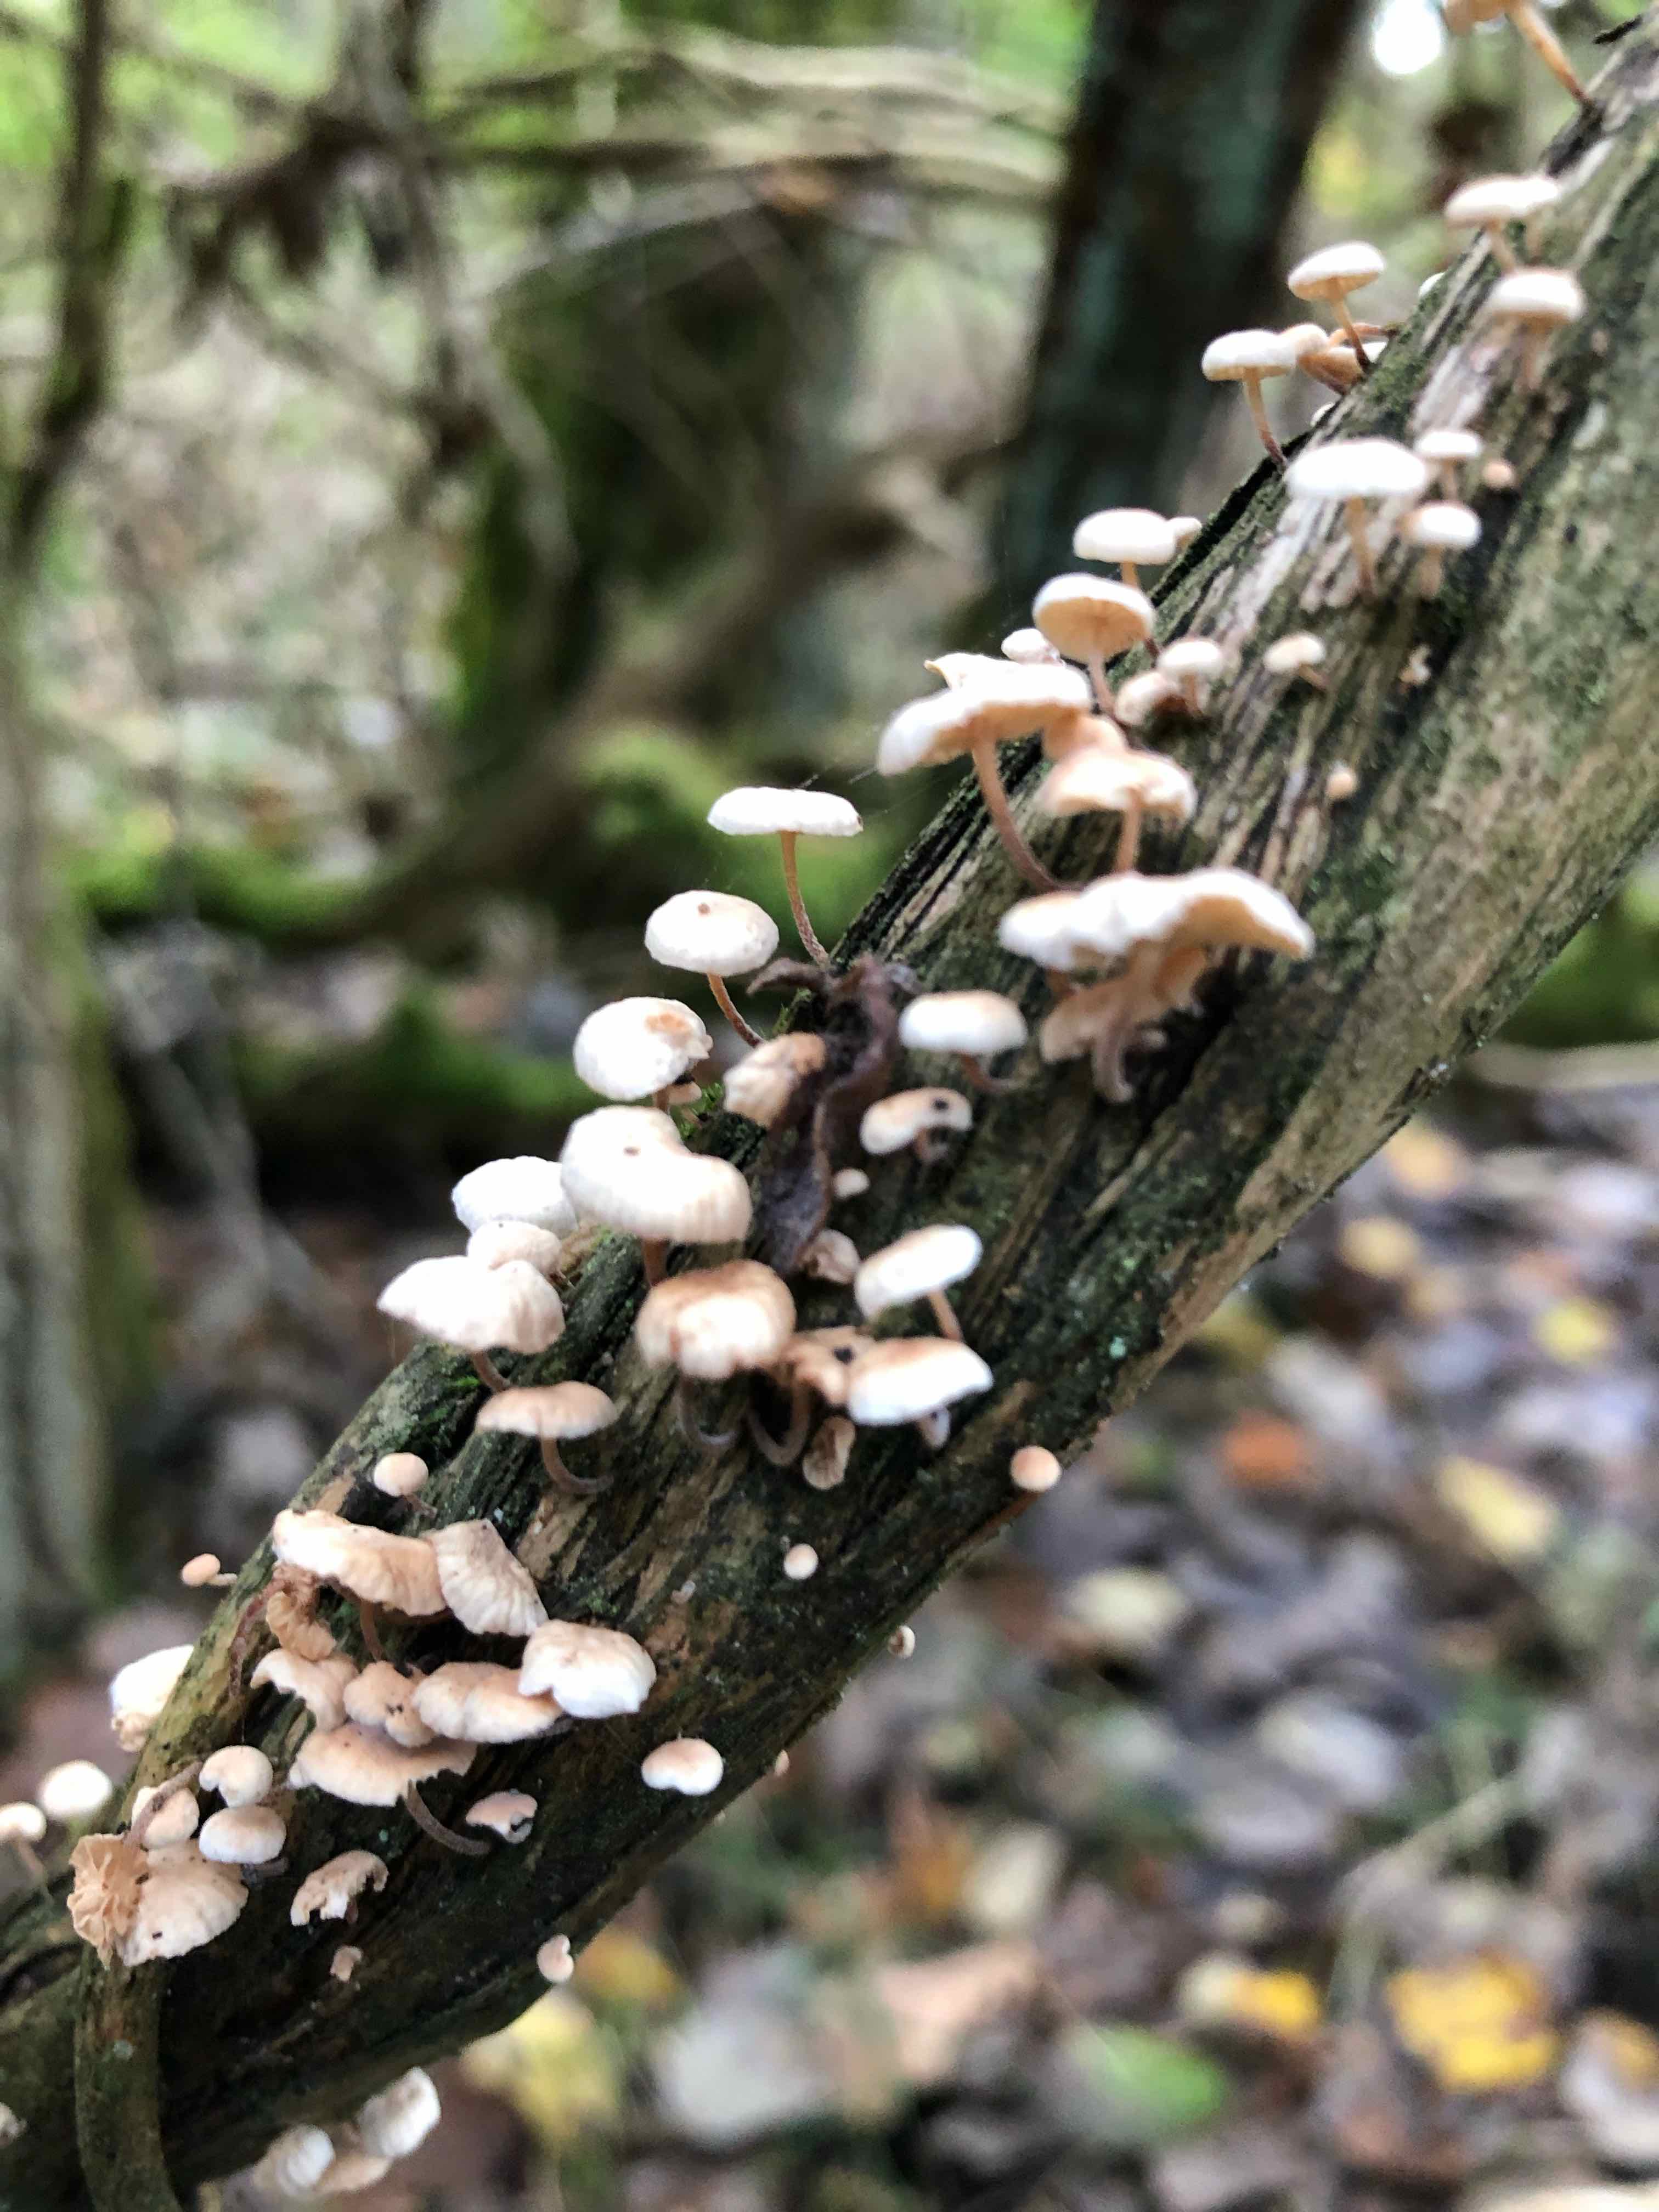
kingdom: Fungi
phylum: Basidiomycota
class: Agaricomycetes
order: Agaricales
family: Omphalotaceae
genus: Collybiopsis
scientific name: Collybiopsis ramealis
